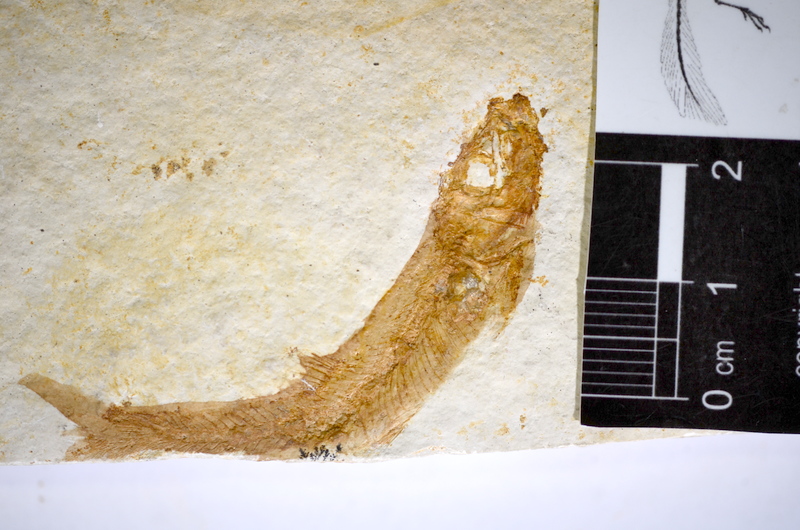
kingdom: Animalia
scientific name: Animalia
